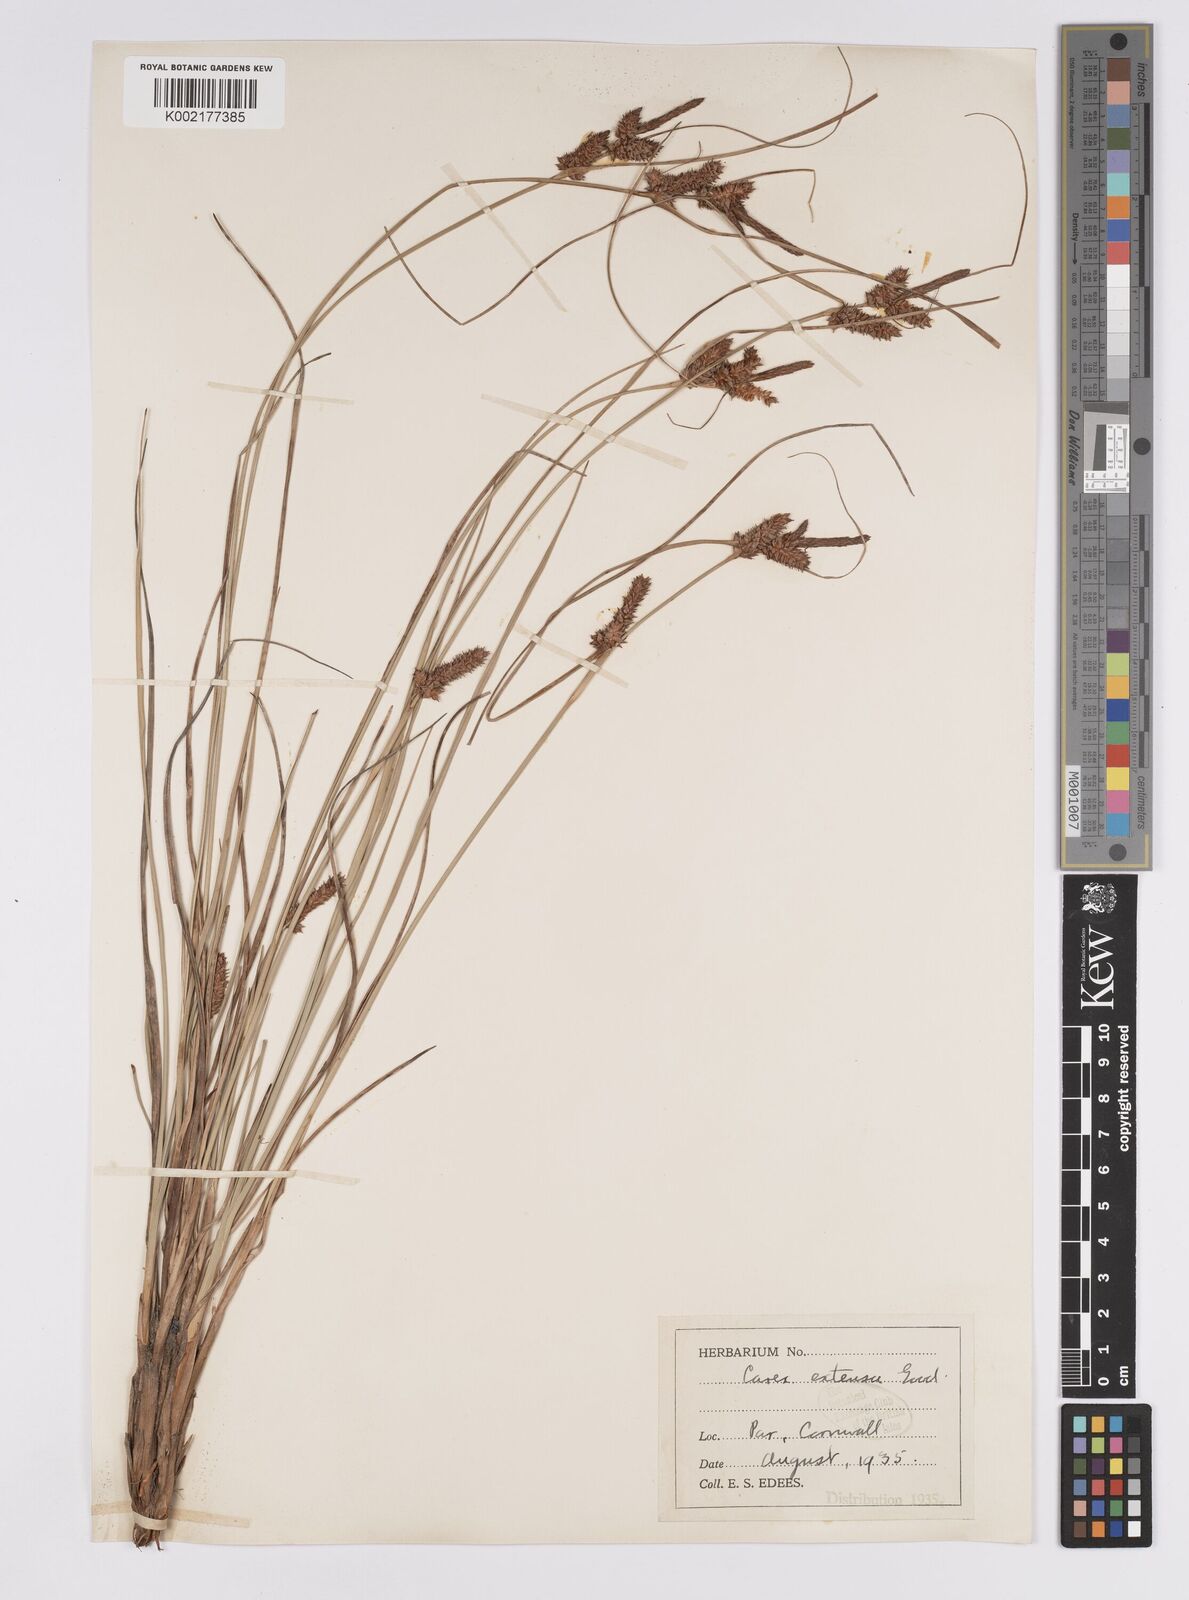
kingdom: Plantae
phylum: Tracheophyta
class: Liliopsida
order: Poales
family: Cyperaceae
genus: Carex
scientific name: Carex extensa
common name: Long-bracted sedge
